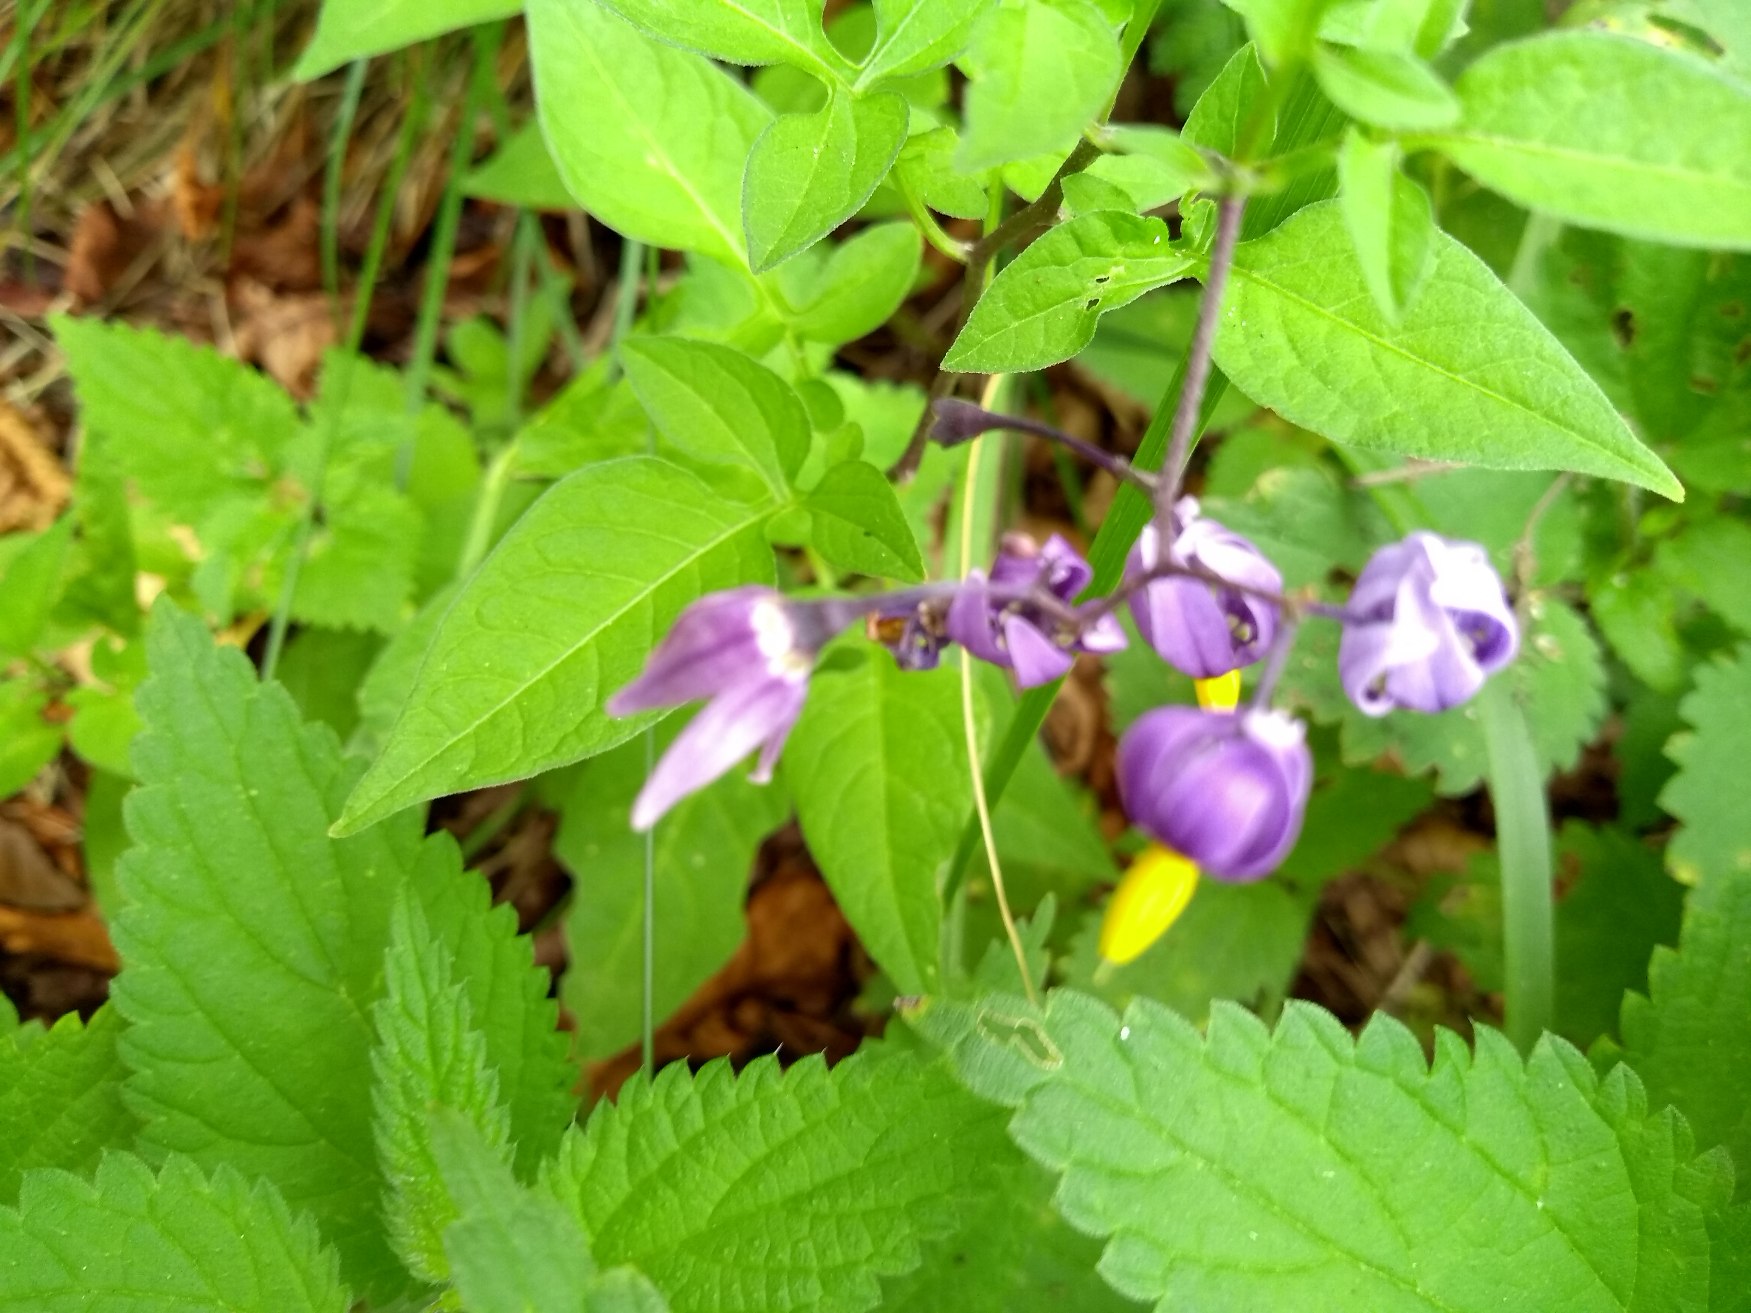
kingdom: Plantae
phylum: Tracheophyta
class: Magnoliopsida
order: Solanales
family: Solanaceae
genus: Solanum
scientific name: Solanum dulcamara
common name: Bittersød natskygge
